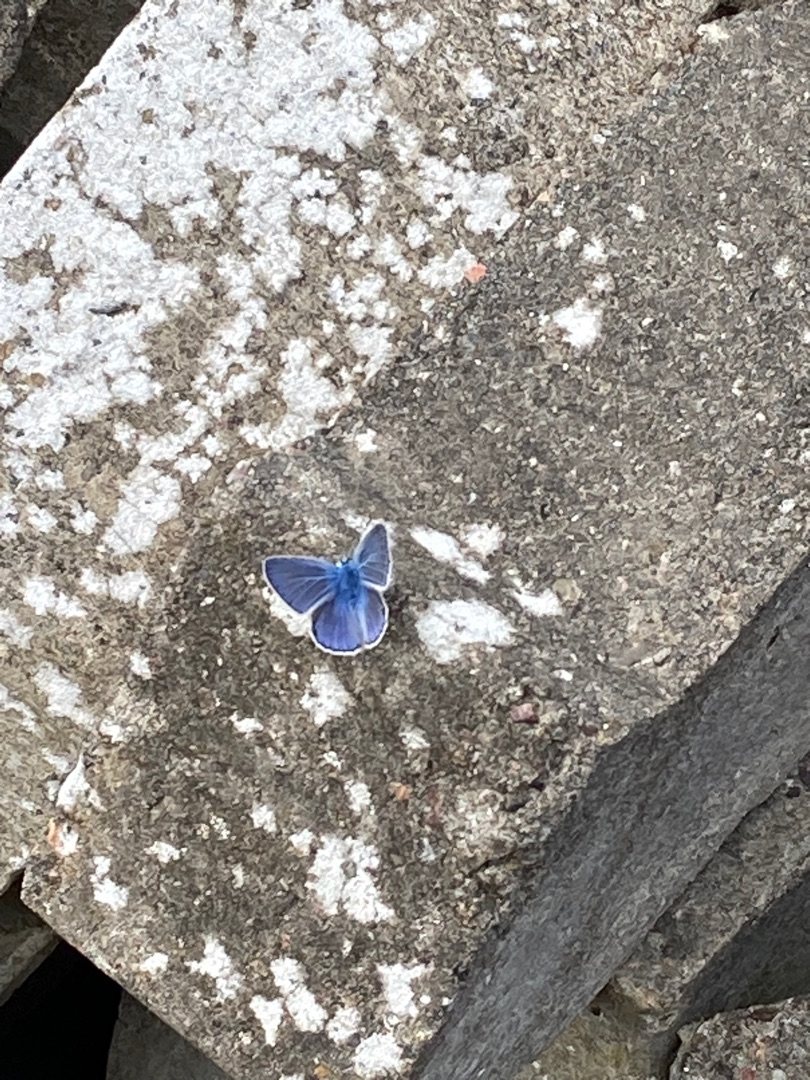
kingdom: Animalia
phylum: Arthropoda
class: Insecta
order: Lepidoptera
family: Lycaenidae
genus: Polyommatus
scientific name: Polyommatus icarus
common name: Almindelig blåfugl
